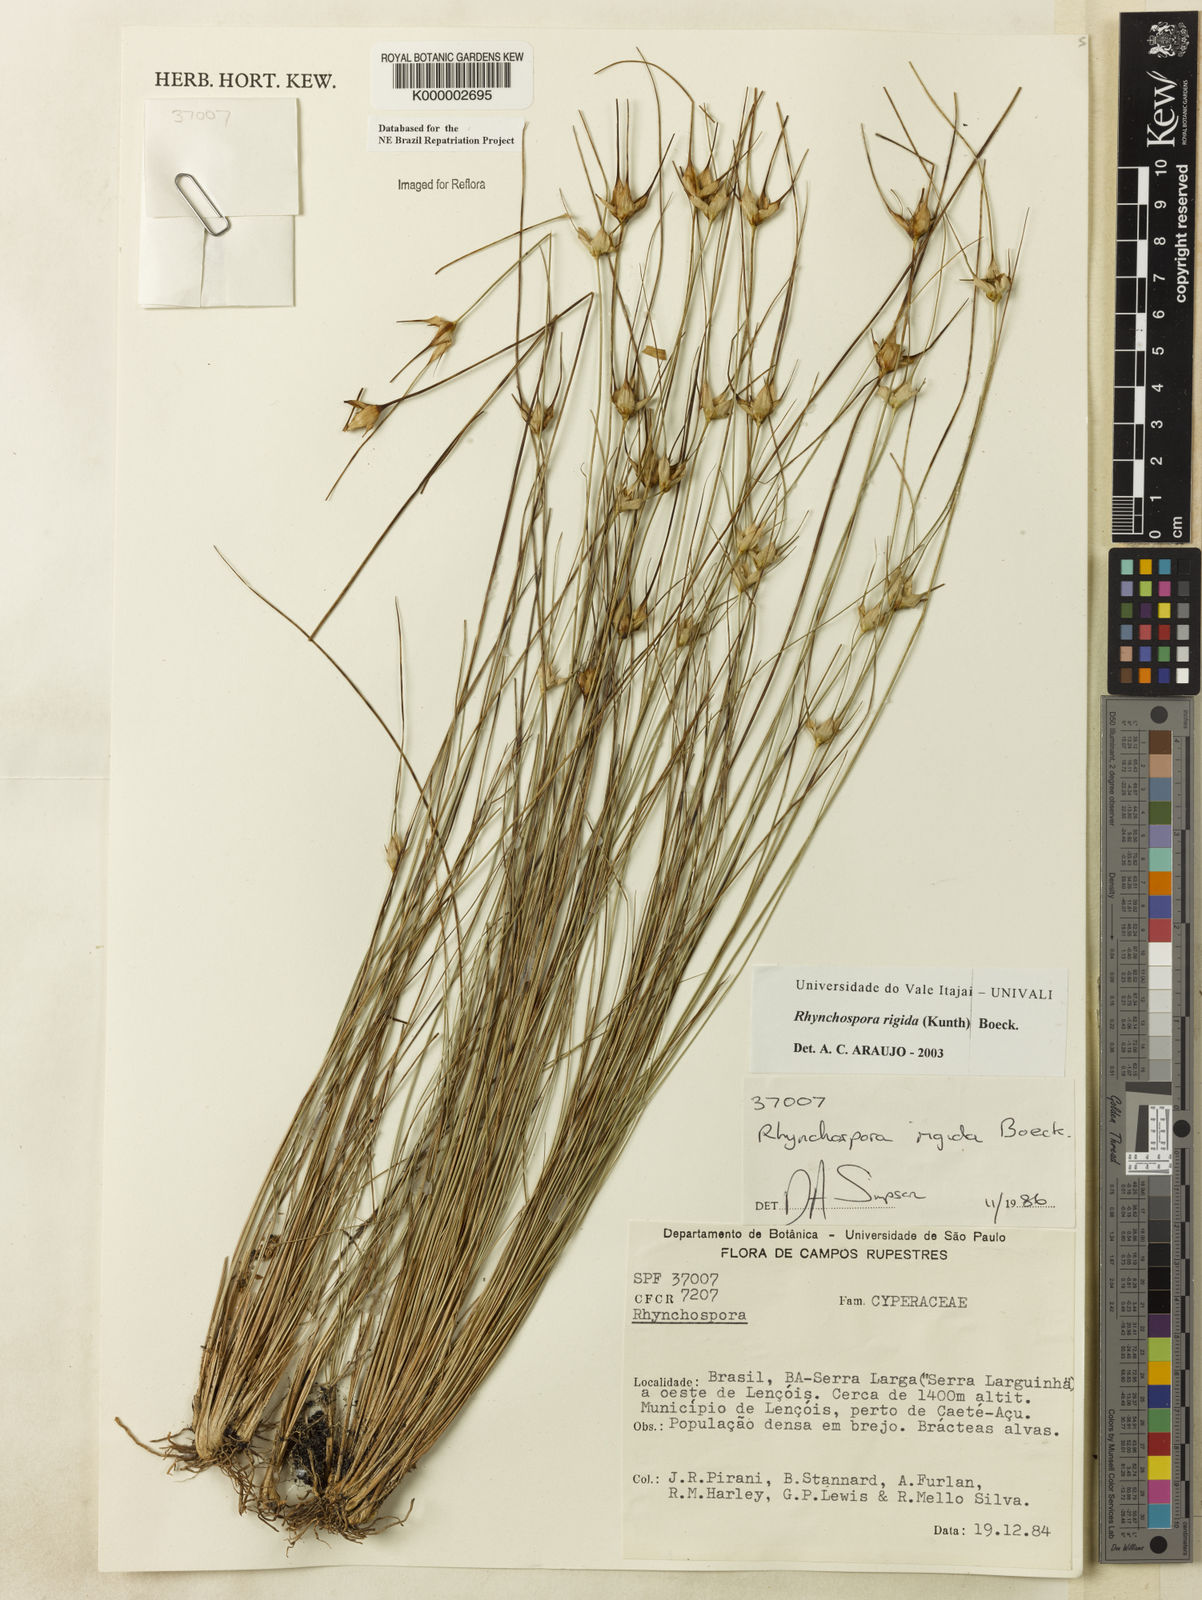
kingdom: Plantae
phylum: Tracheophyta
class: Liliopsida
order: Poales
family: Cyperaceae
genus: Rhynchospora
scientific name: Rhynchospora consanguinea
